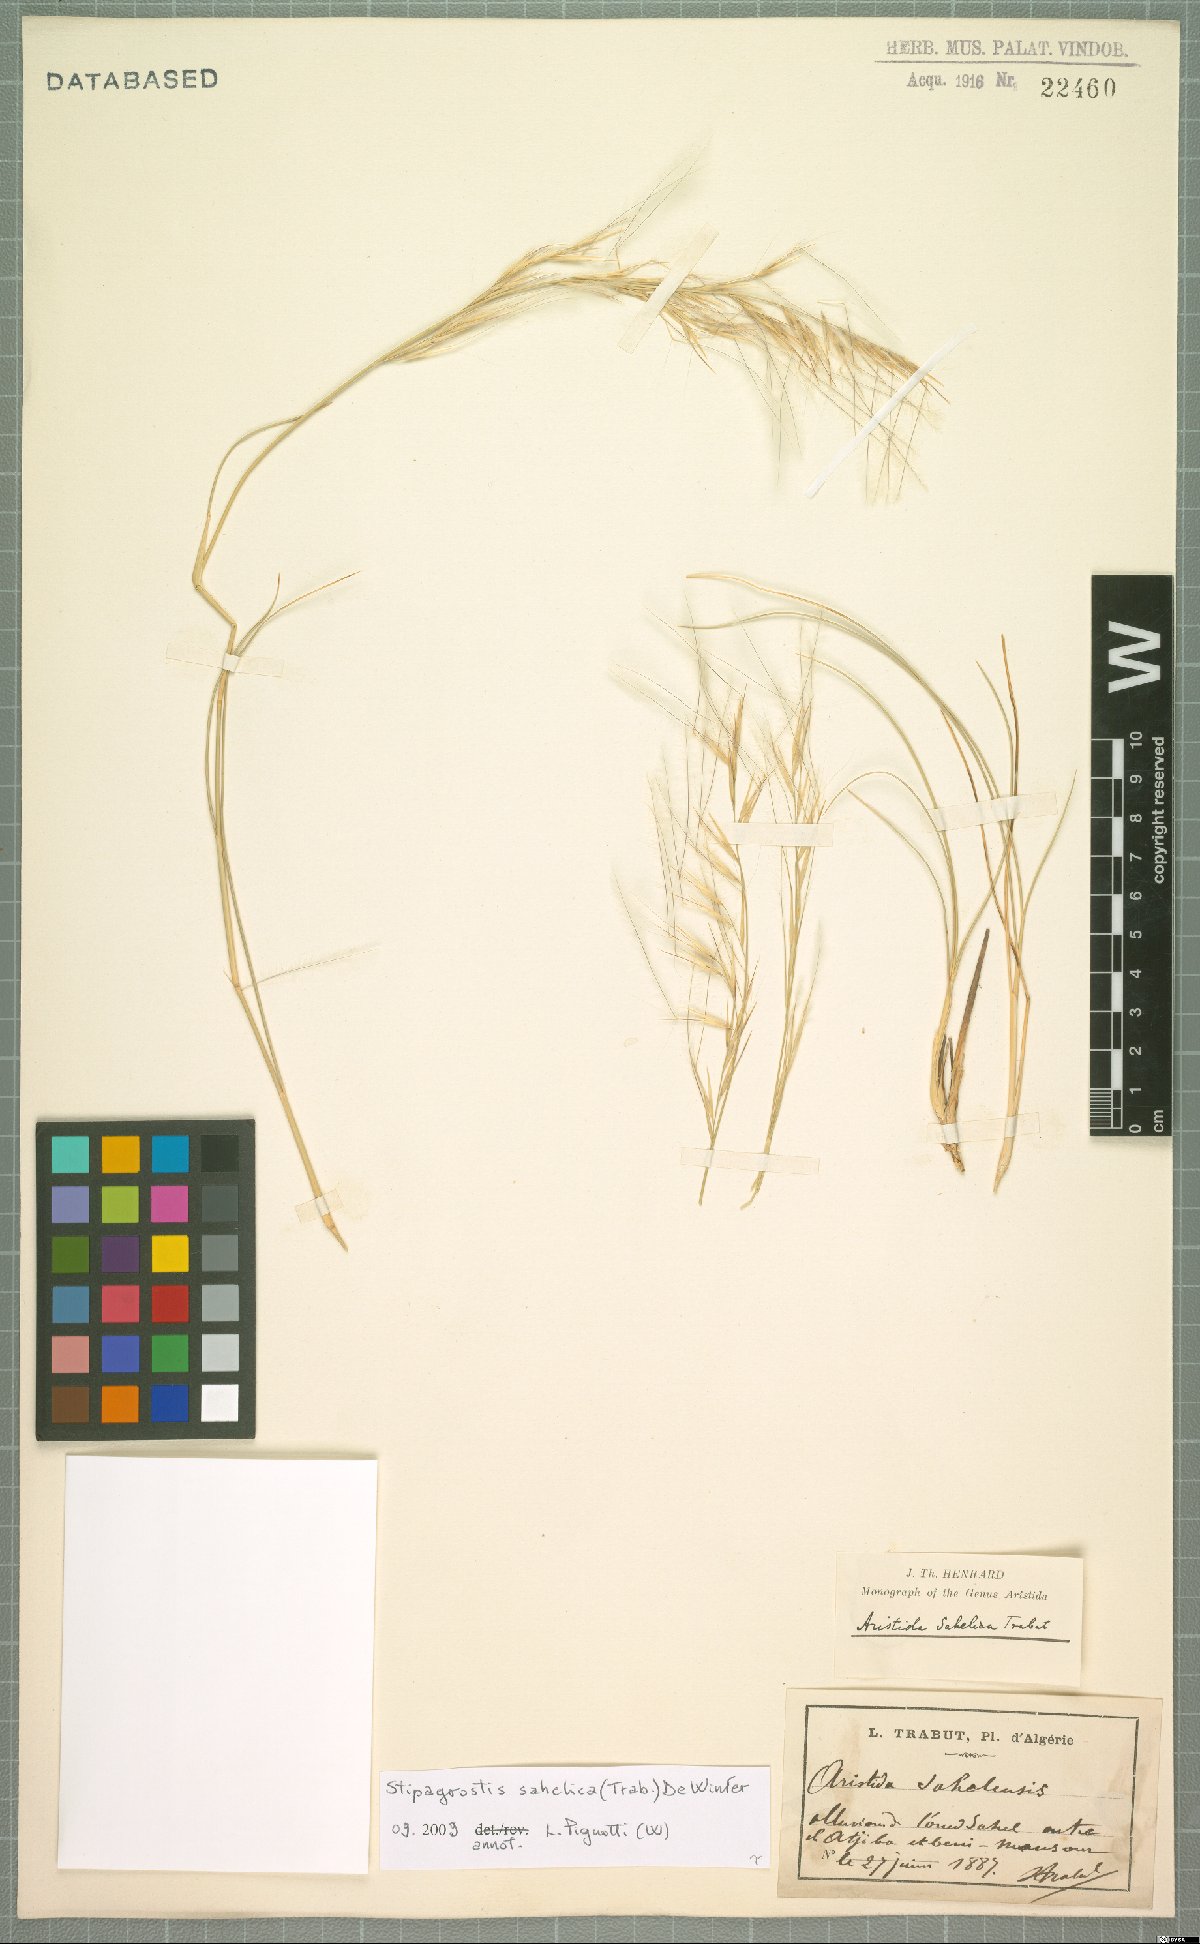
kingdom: Plantae
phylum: Tracheophyta
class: Liliopsida
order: Poales
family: Poaceae
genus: Stipagrostis
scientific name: Stipagrostis sahelica
